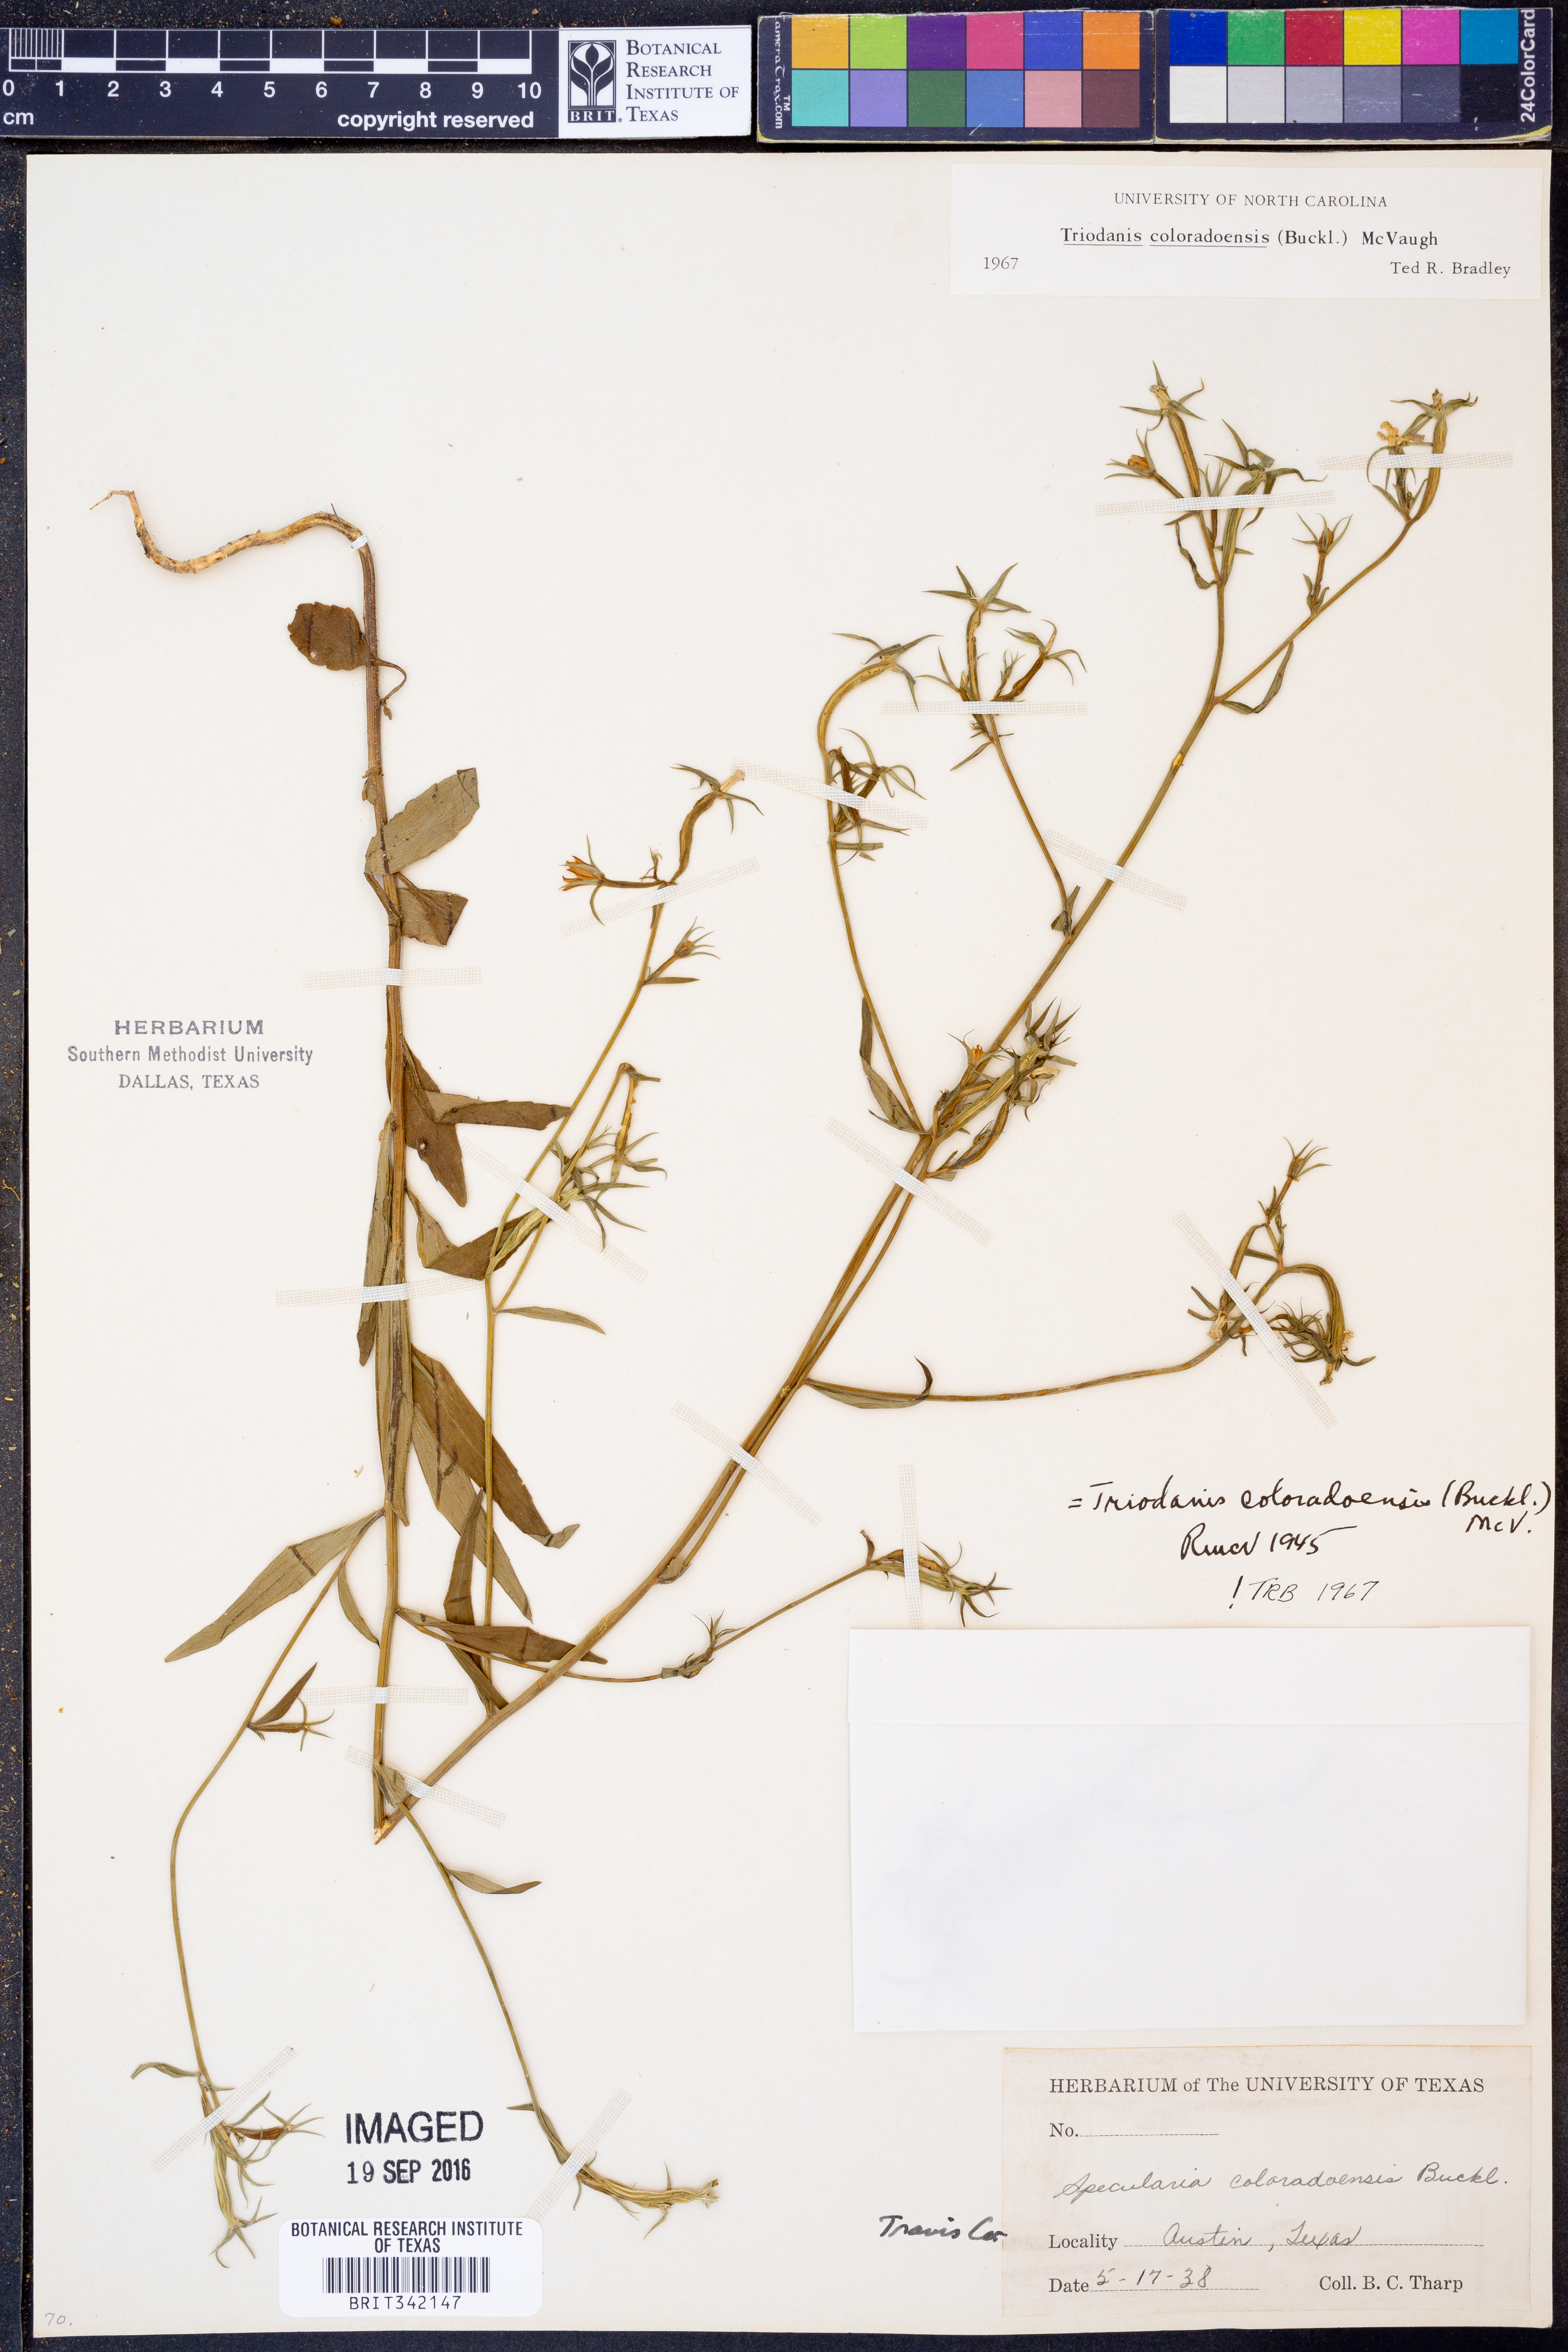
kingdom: Plantae
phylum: Tracheophyta
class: Magnoliopsida
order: Asterales
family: Campanulaceae
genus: Triodanis
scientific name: Triodanis coloradoensis
